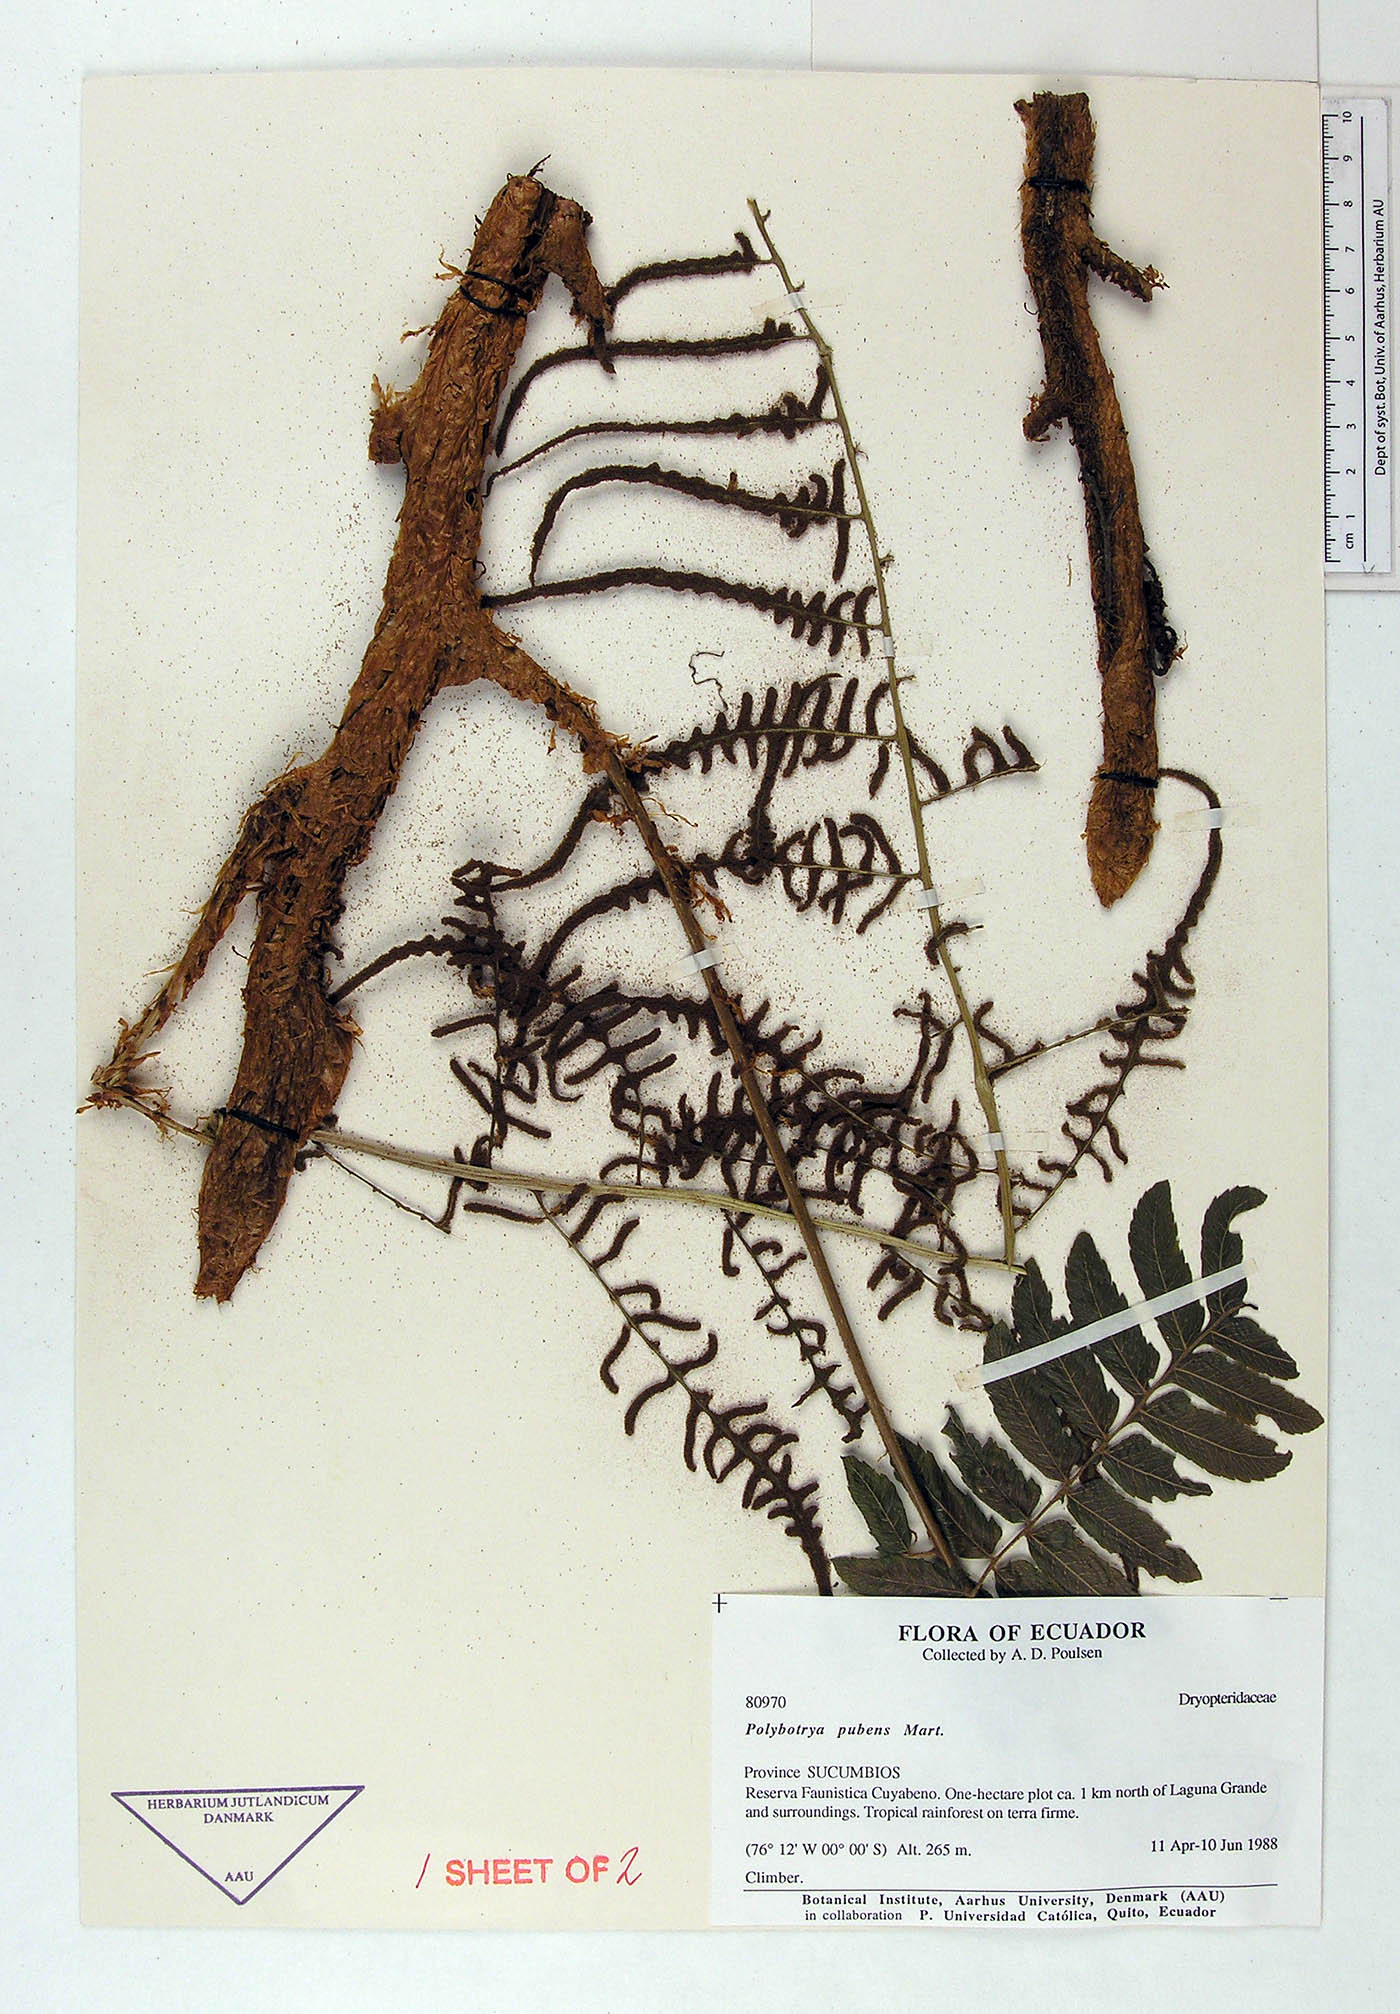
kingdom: Plantae
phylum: Tracheophyta
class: Polypodiopsida
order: Polypodiales
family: Dryopteridaceae
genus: Polybotrya
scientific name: Polybotrya pubens
